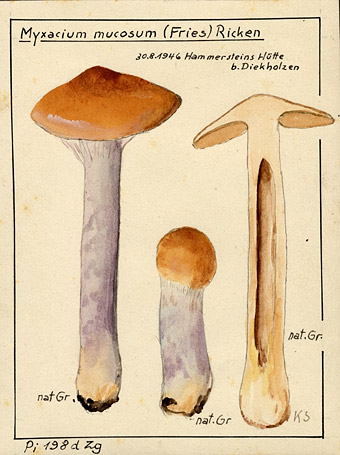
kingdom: Fungi
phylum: Basidiomycota
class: Agaricomycetes
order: Agaricales
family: Cortinariaceae
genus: Cortinarius
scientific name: Cortinarius
